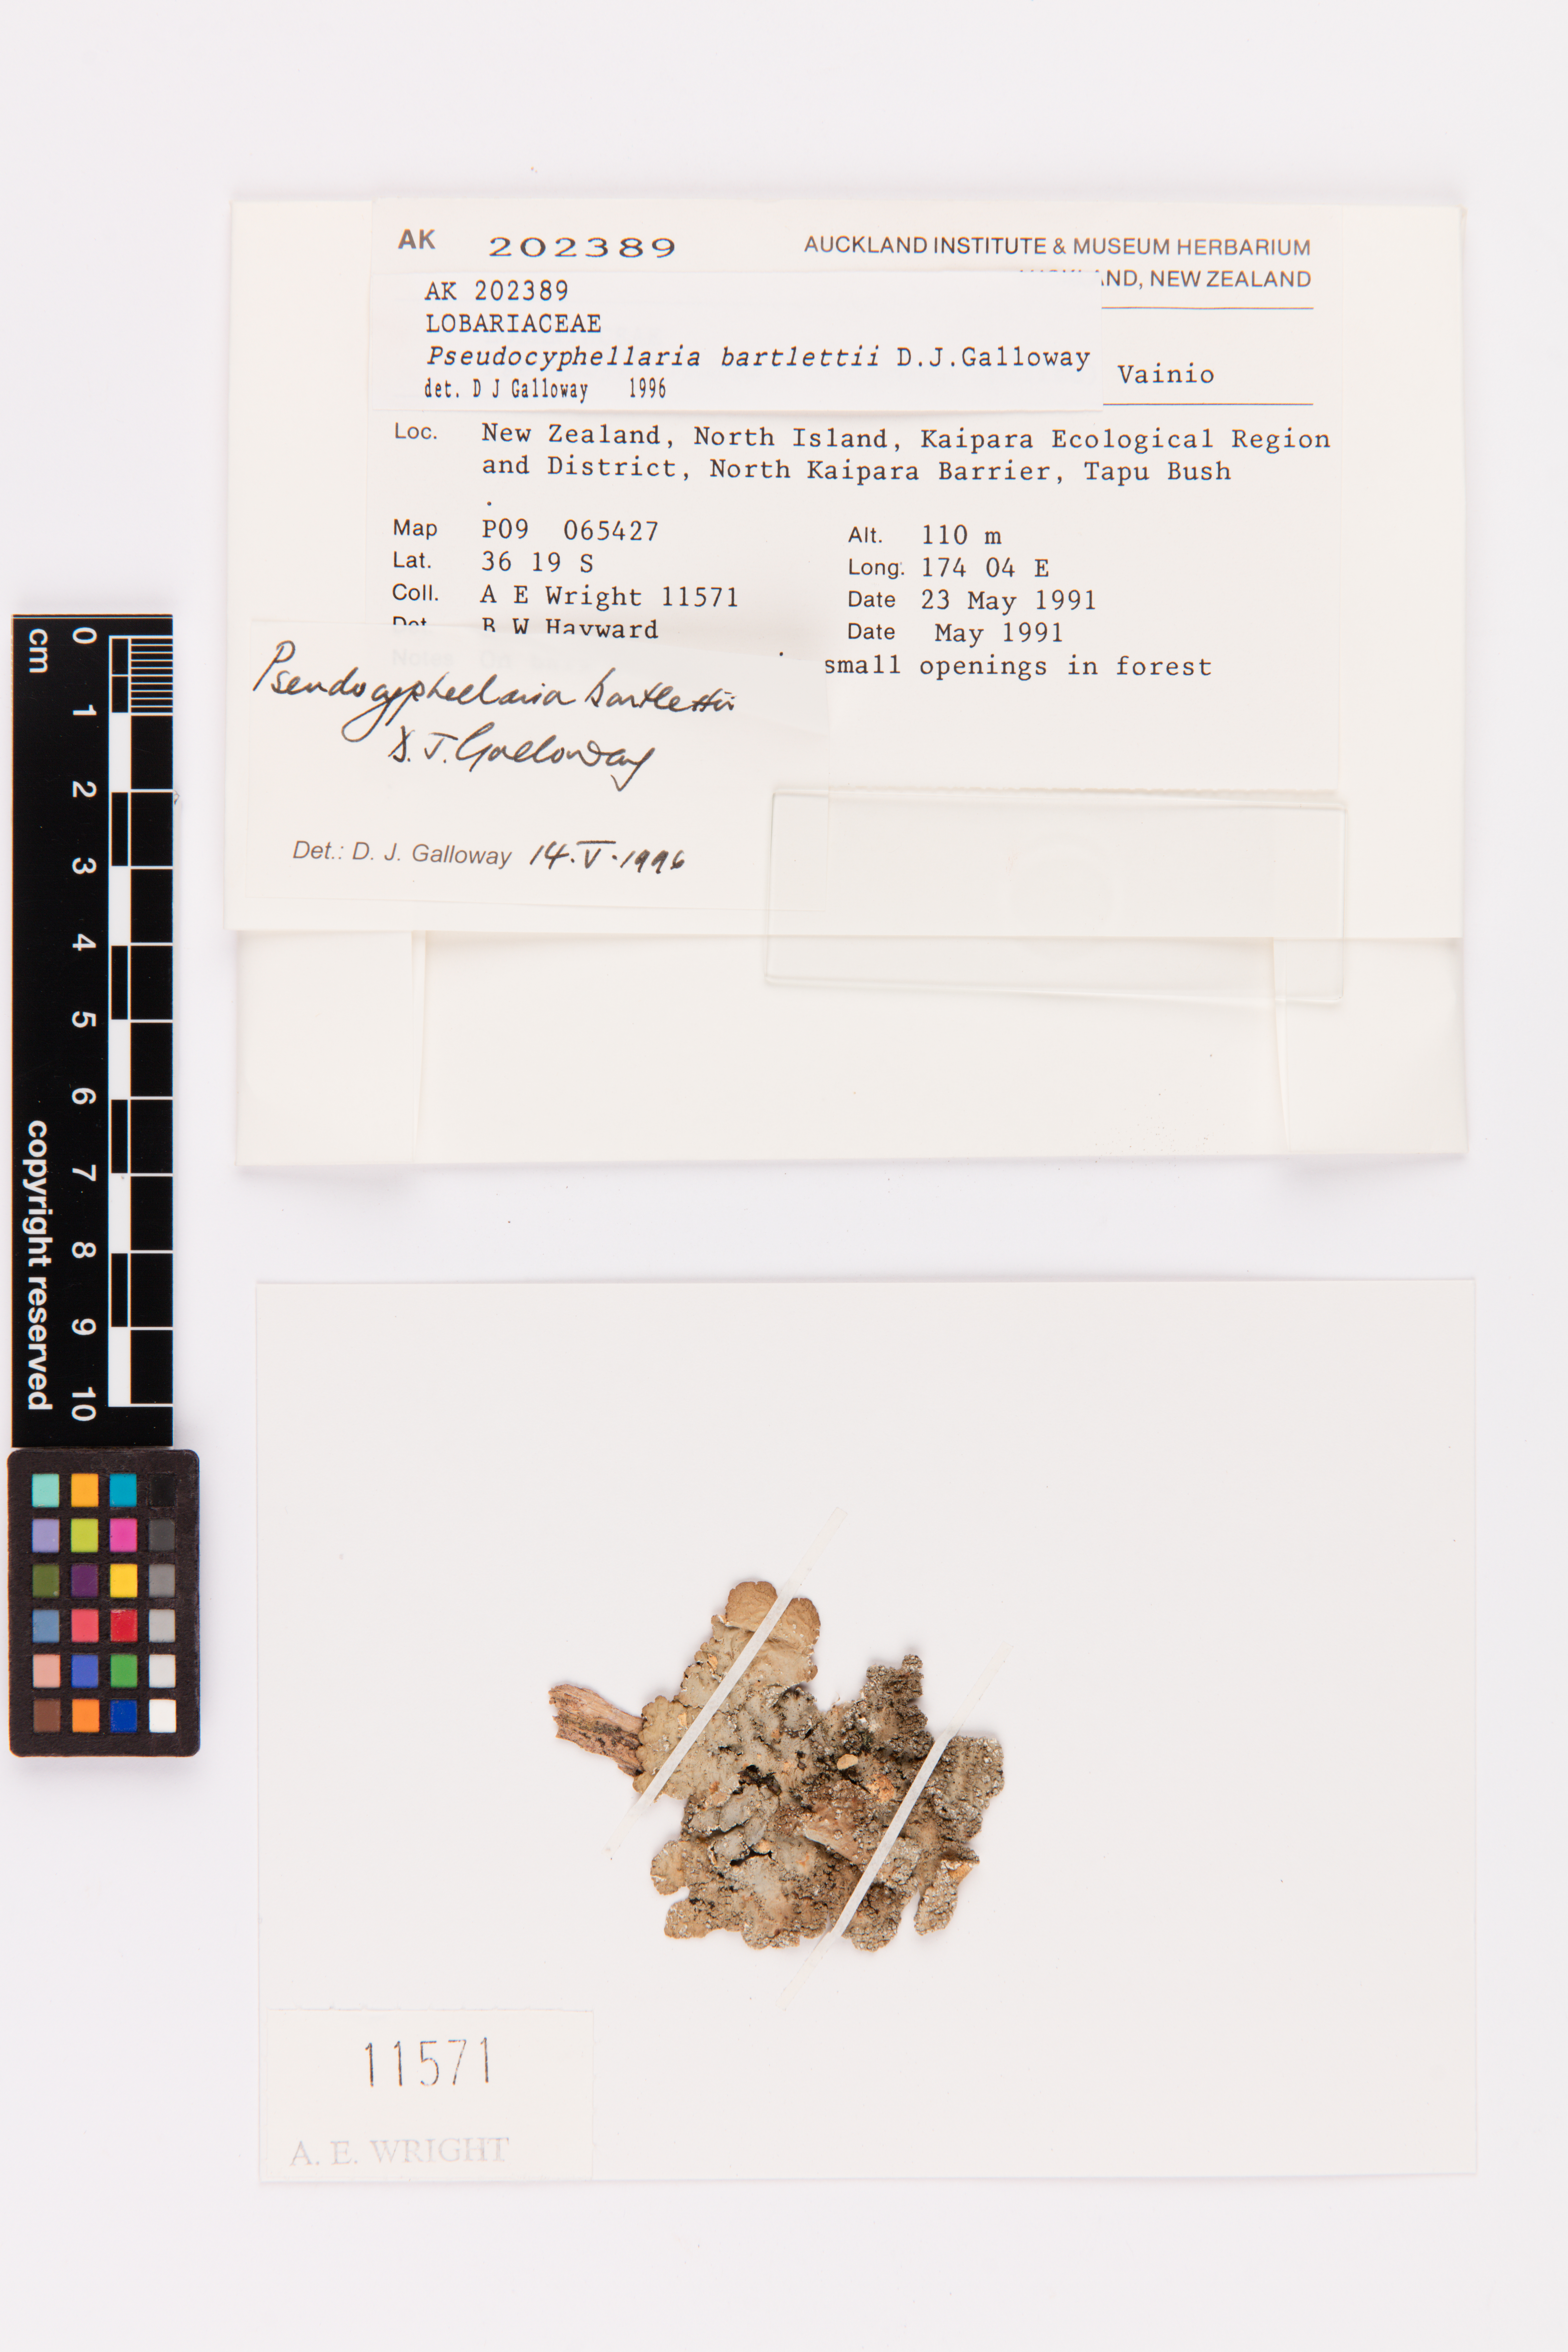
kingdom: Fungi
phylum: Ascomycota
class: Lecanoromycetes
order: Peltigerales
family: Lobariaceae
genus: Pseudocyphellaria
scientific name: Pseudocyphellaria bartlettii
